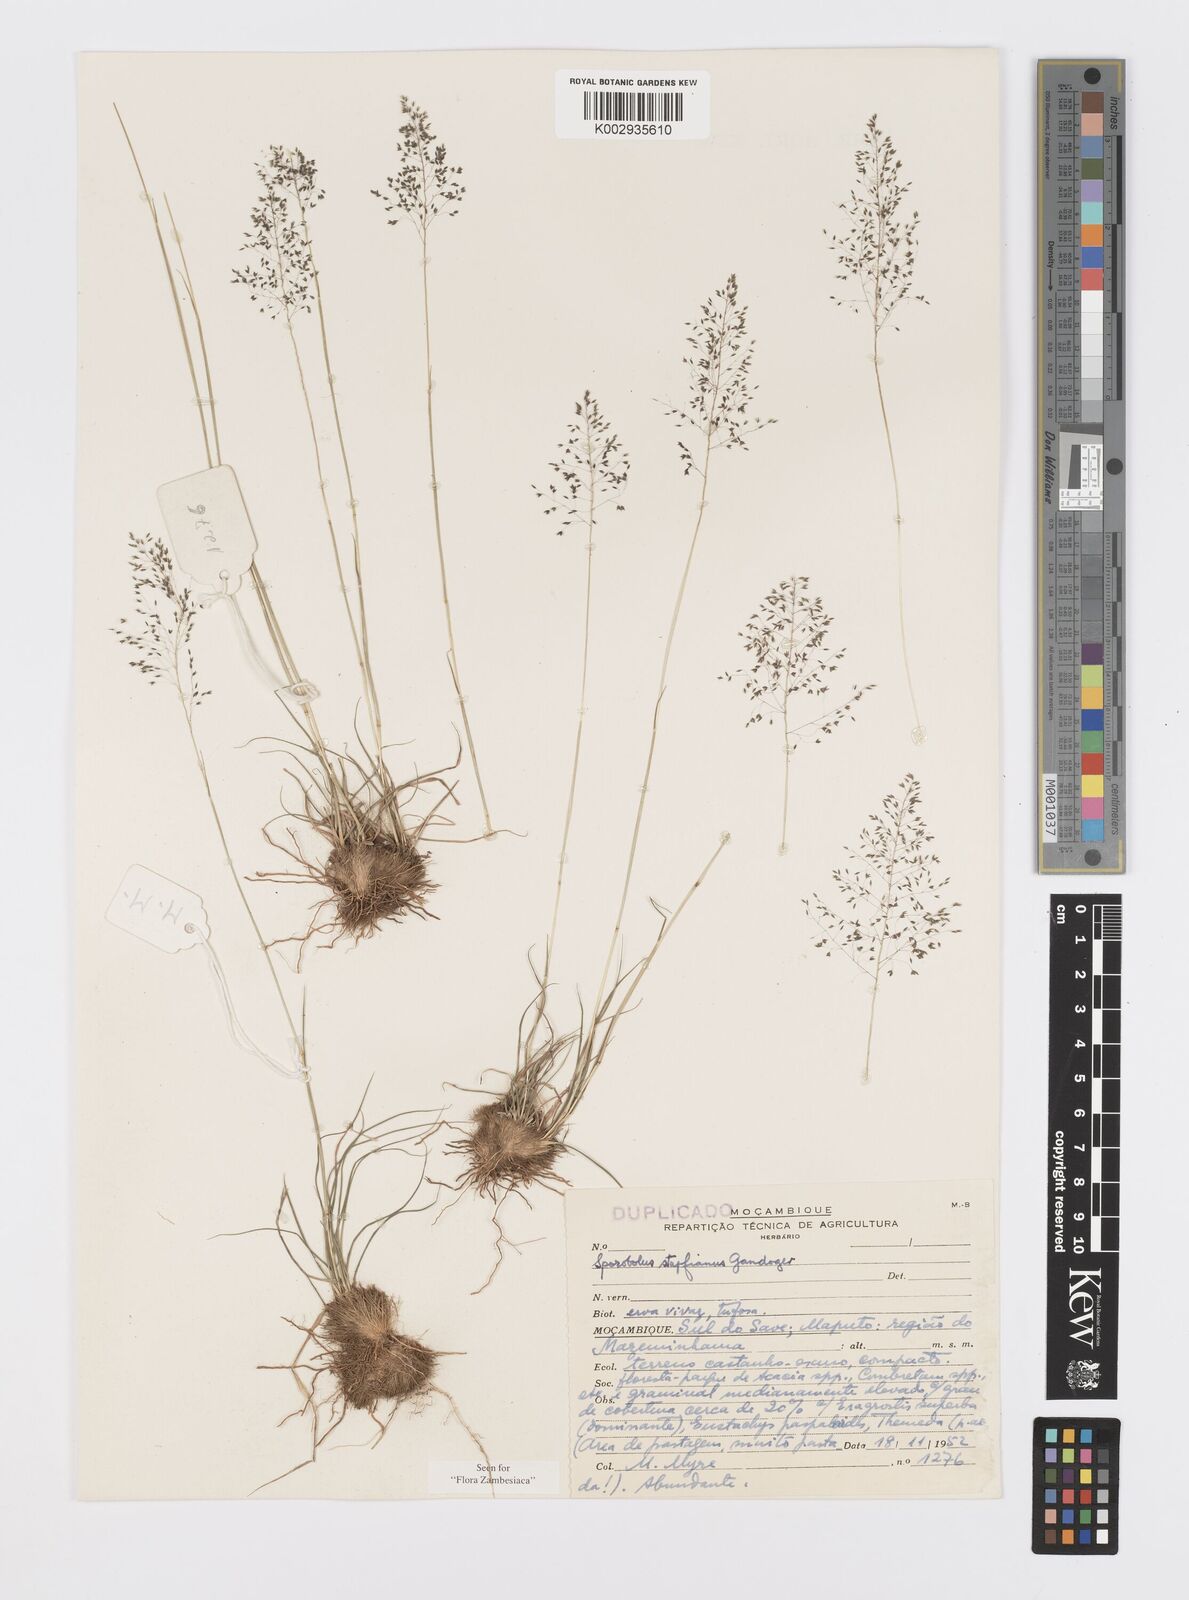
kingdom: Plantae
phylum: Tracheophyta
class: Liliopsida
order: Poales
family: Poaceae
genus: Sporobolus
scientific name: Sporobolus stapfianus
